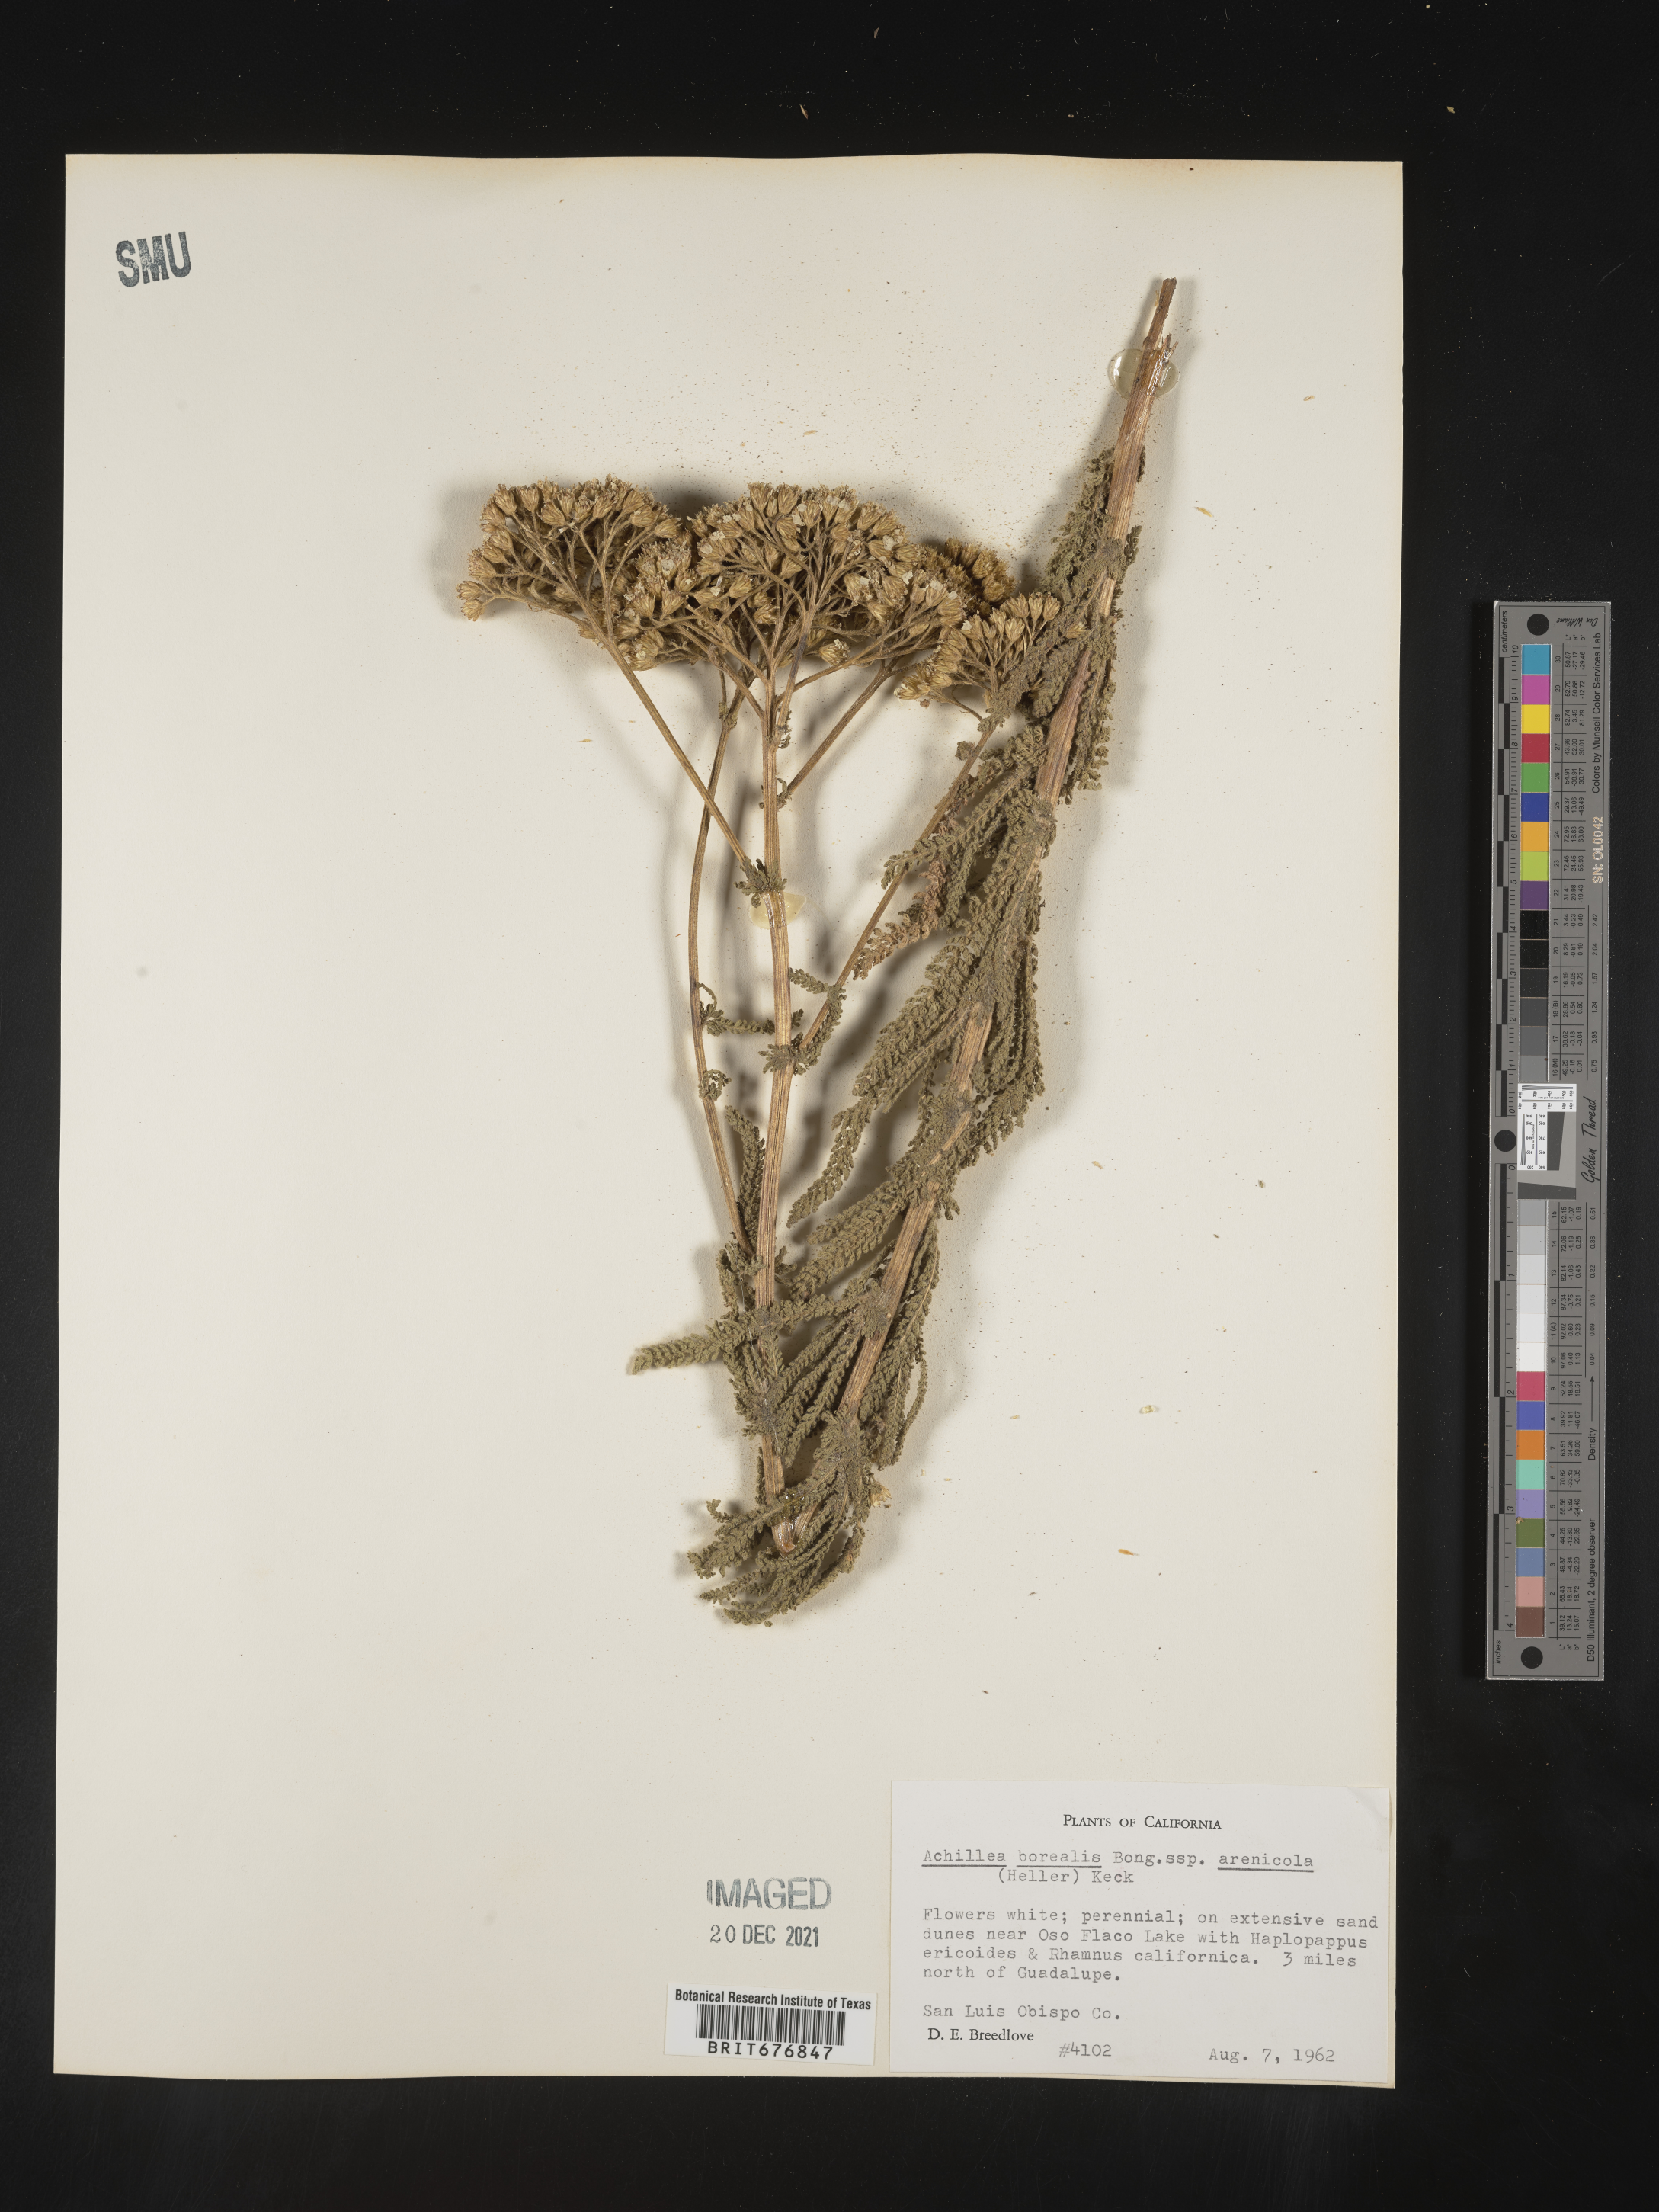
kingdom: Plantae
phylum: Tracheophyta
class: Magnoliopsida
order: Asterales
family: Asteraceae
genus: Achillea
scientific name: Achillea
